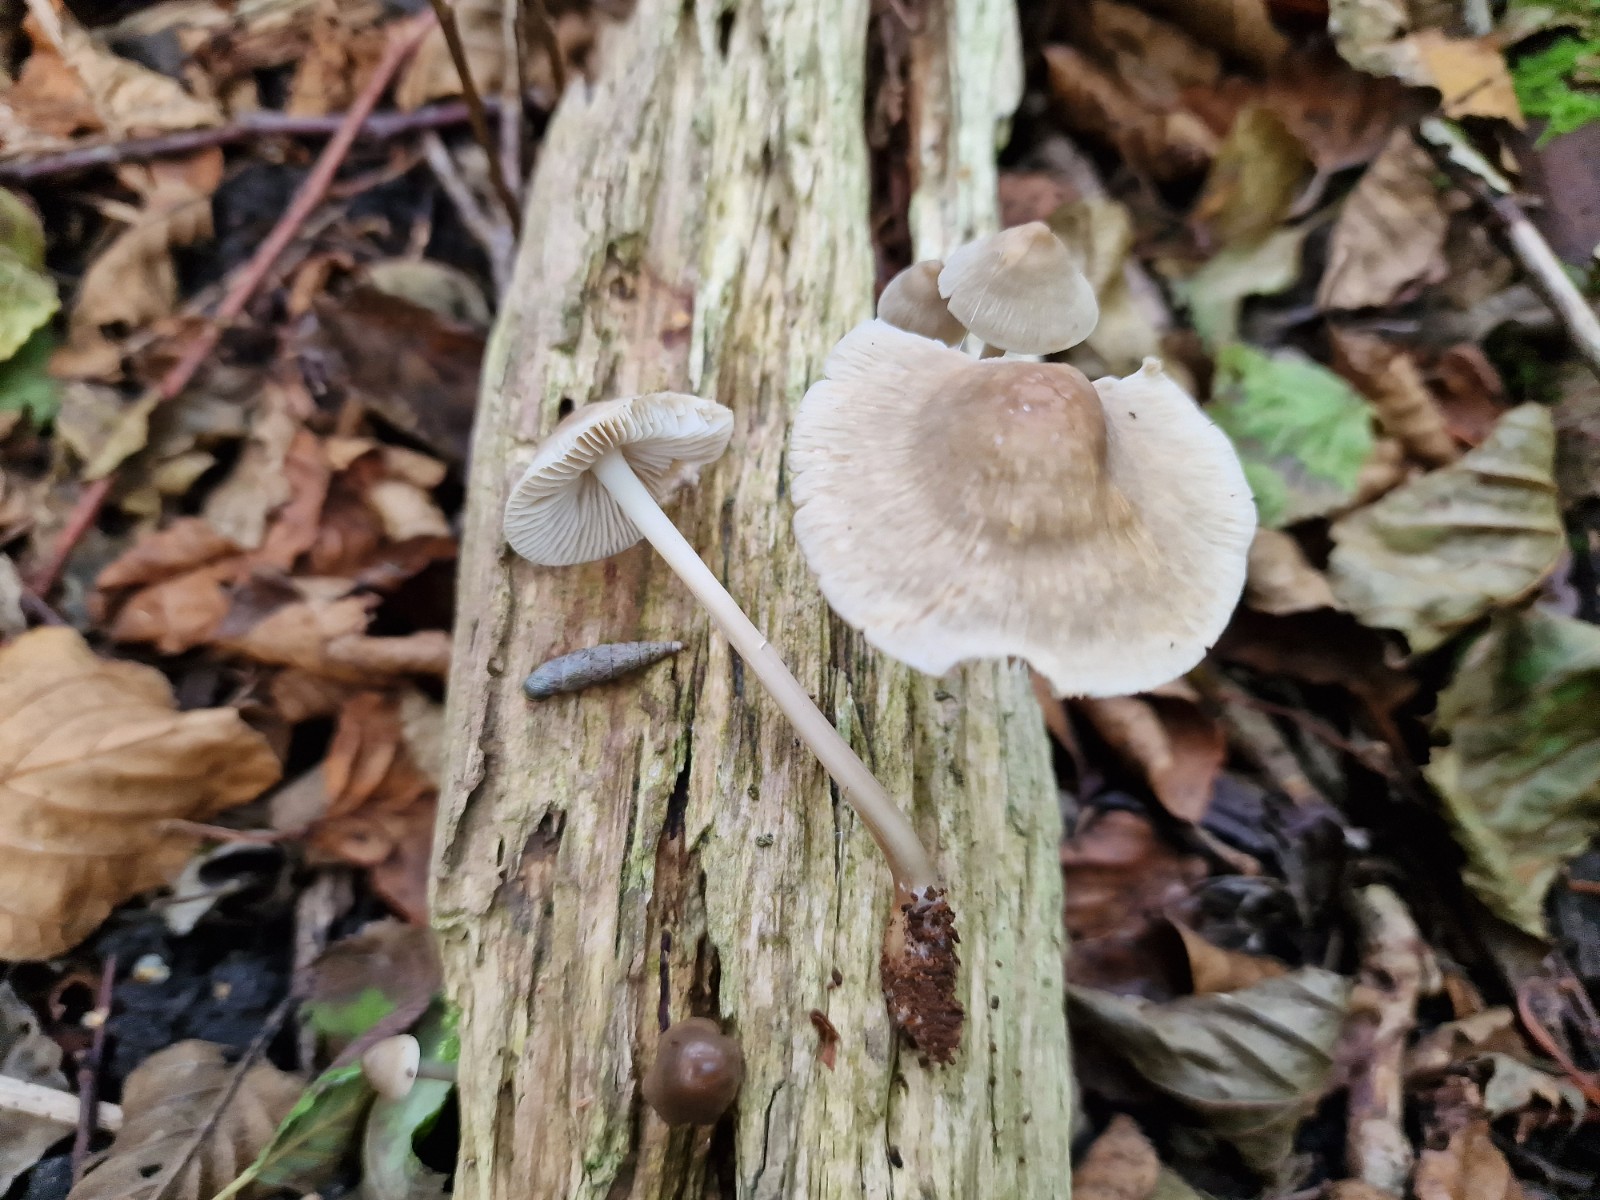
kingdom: Fungi
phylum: Basidiomycota
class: Agaricomycetes
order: Agaricales
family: Mycenaceae
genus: Mycena
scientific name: Mycena galericulata
